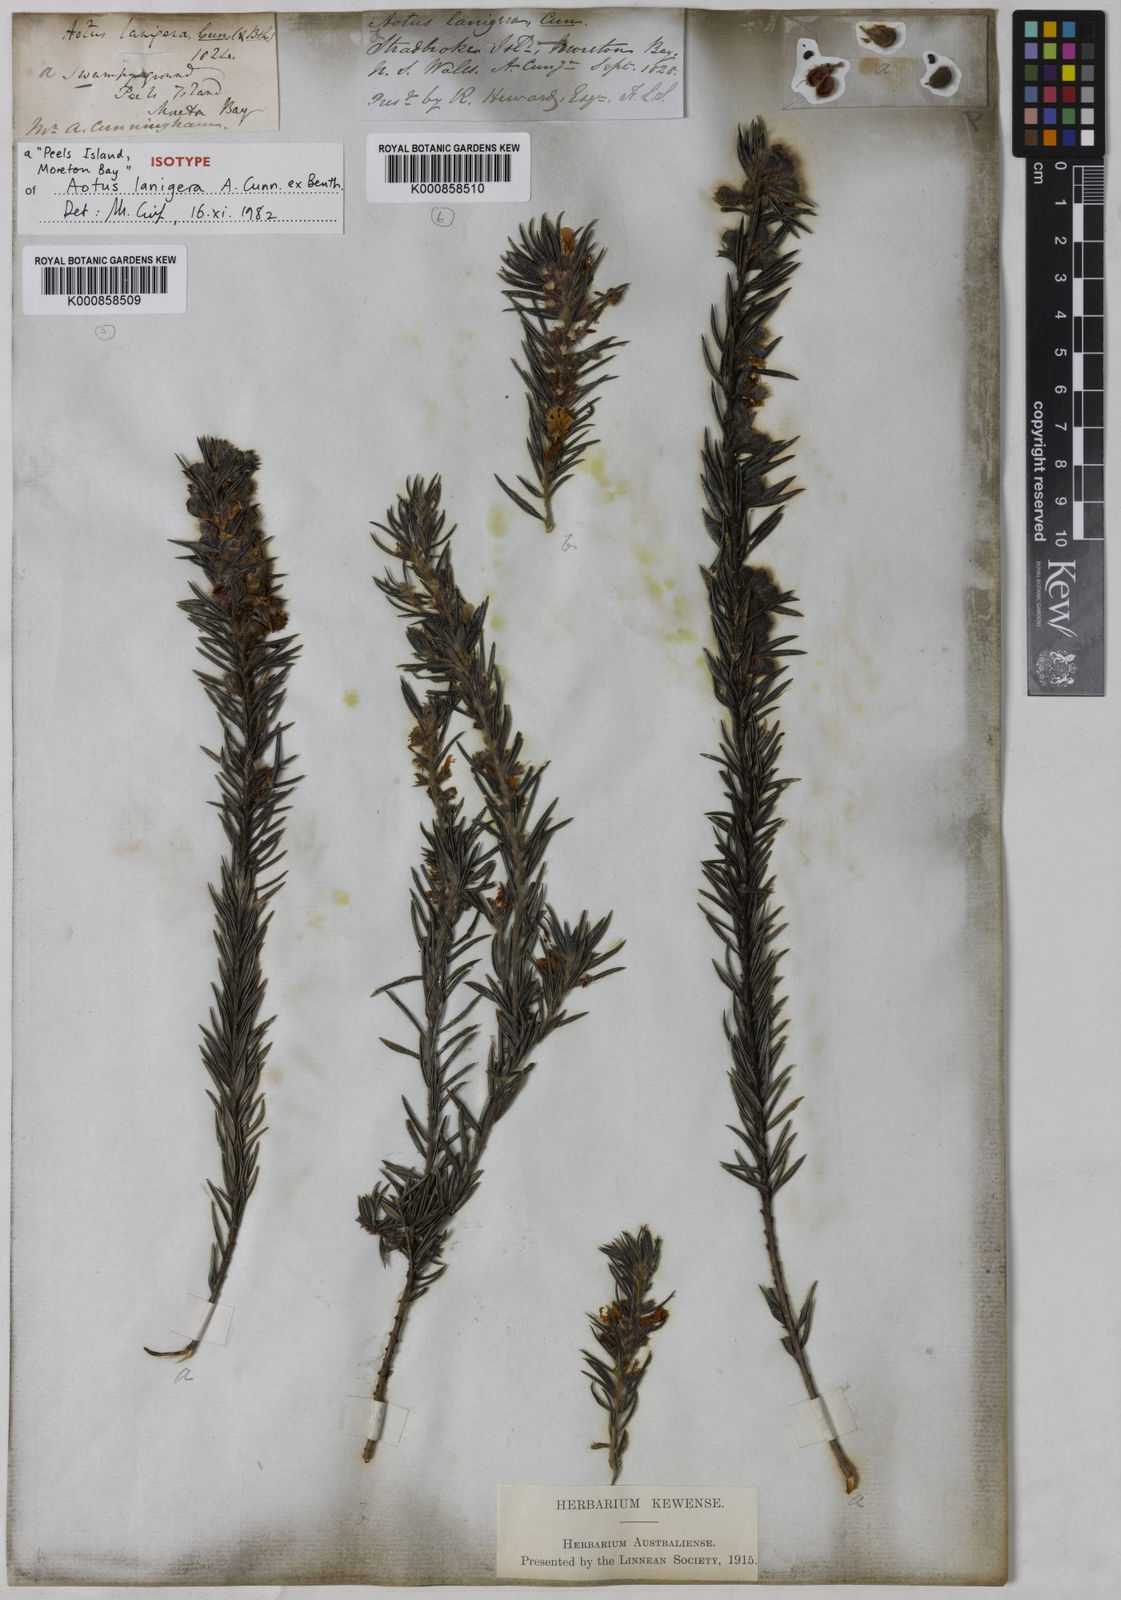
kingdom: Plantae
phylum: Tracheophyta
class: Magnoliopsida
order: Fabales
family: Fabaceae
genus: Aotus
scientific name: Aotus lanigera
